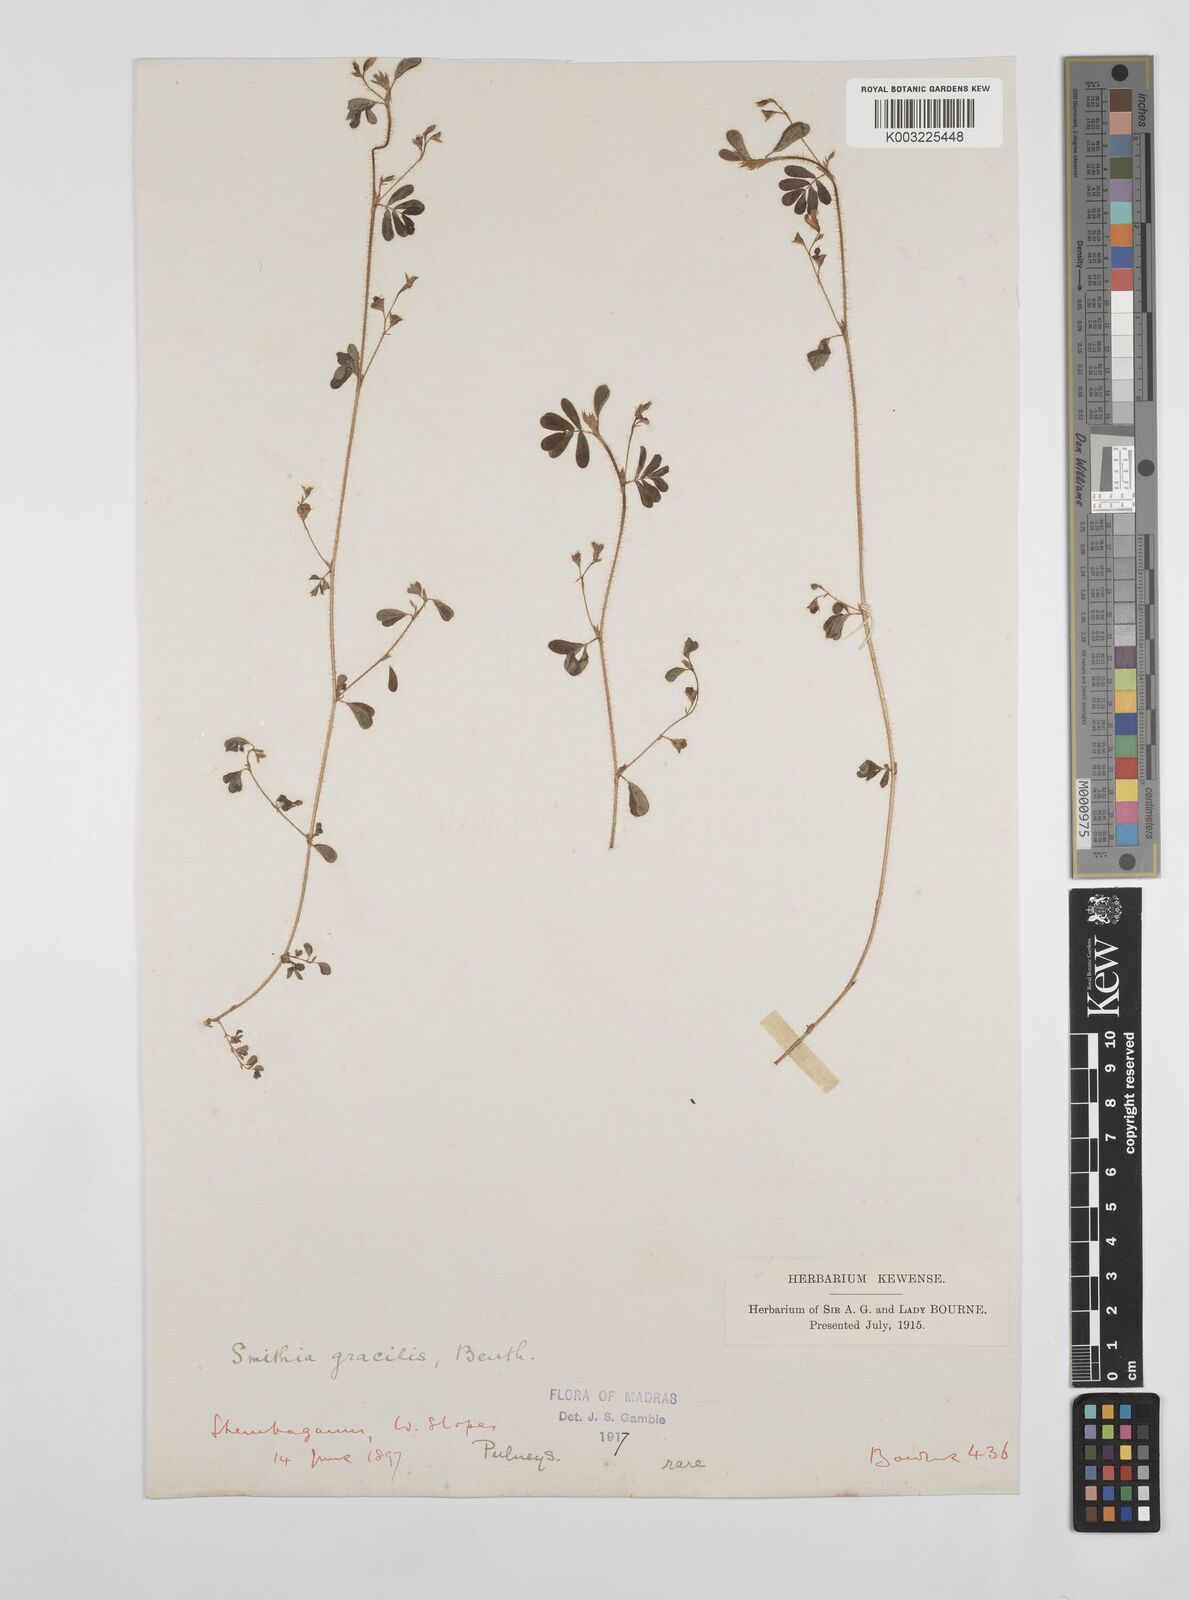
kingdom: Plantae
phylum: Tracheophyta
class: Magnoliopsida
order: Fabales
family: Fabaceae
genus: Smithia
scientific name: Smithia gracilis
